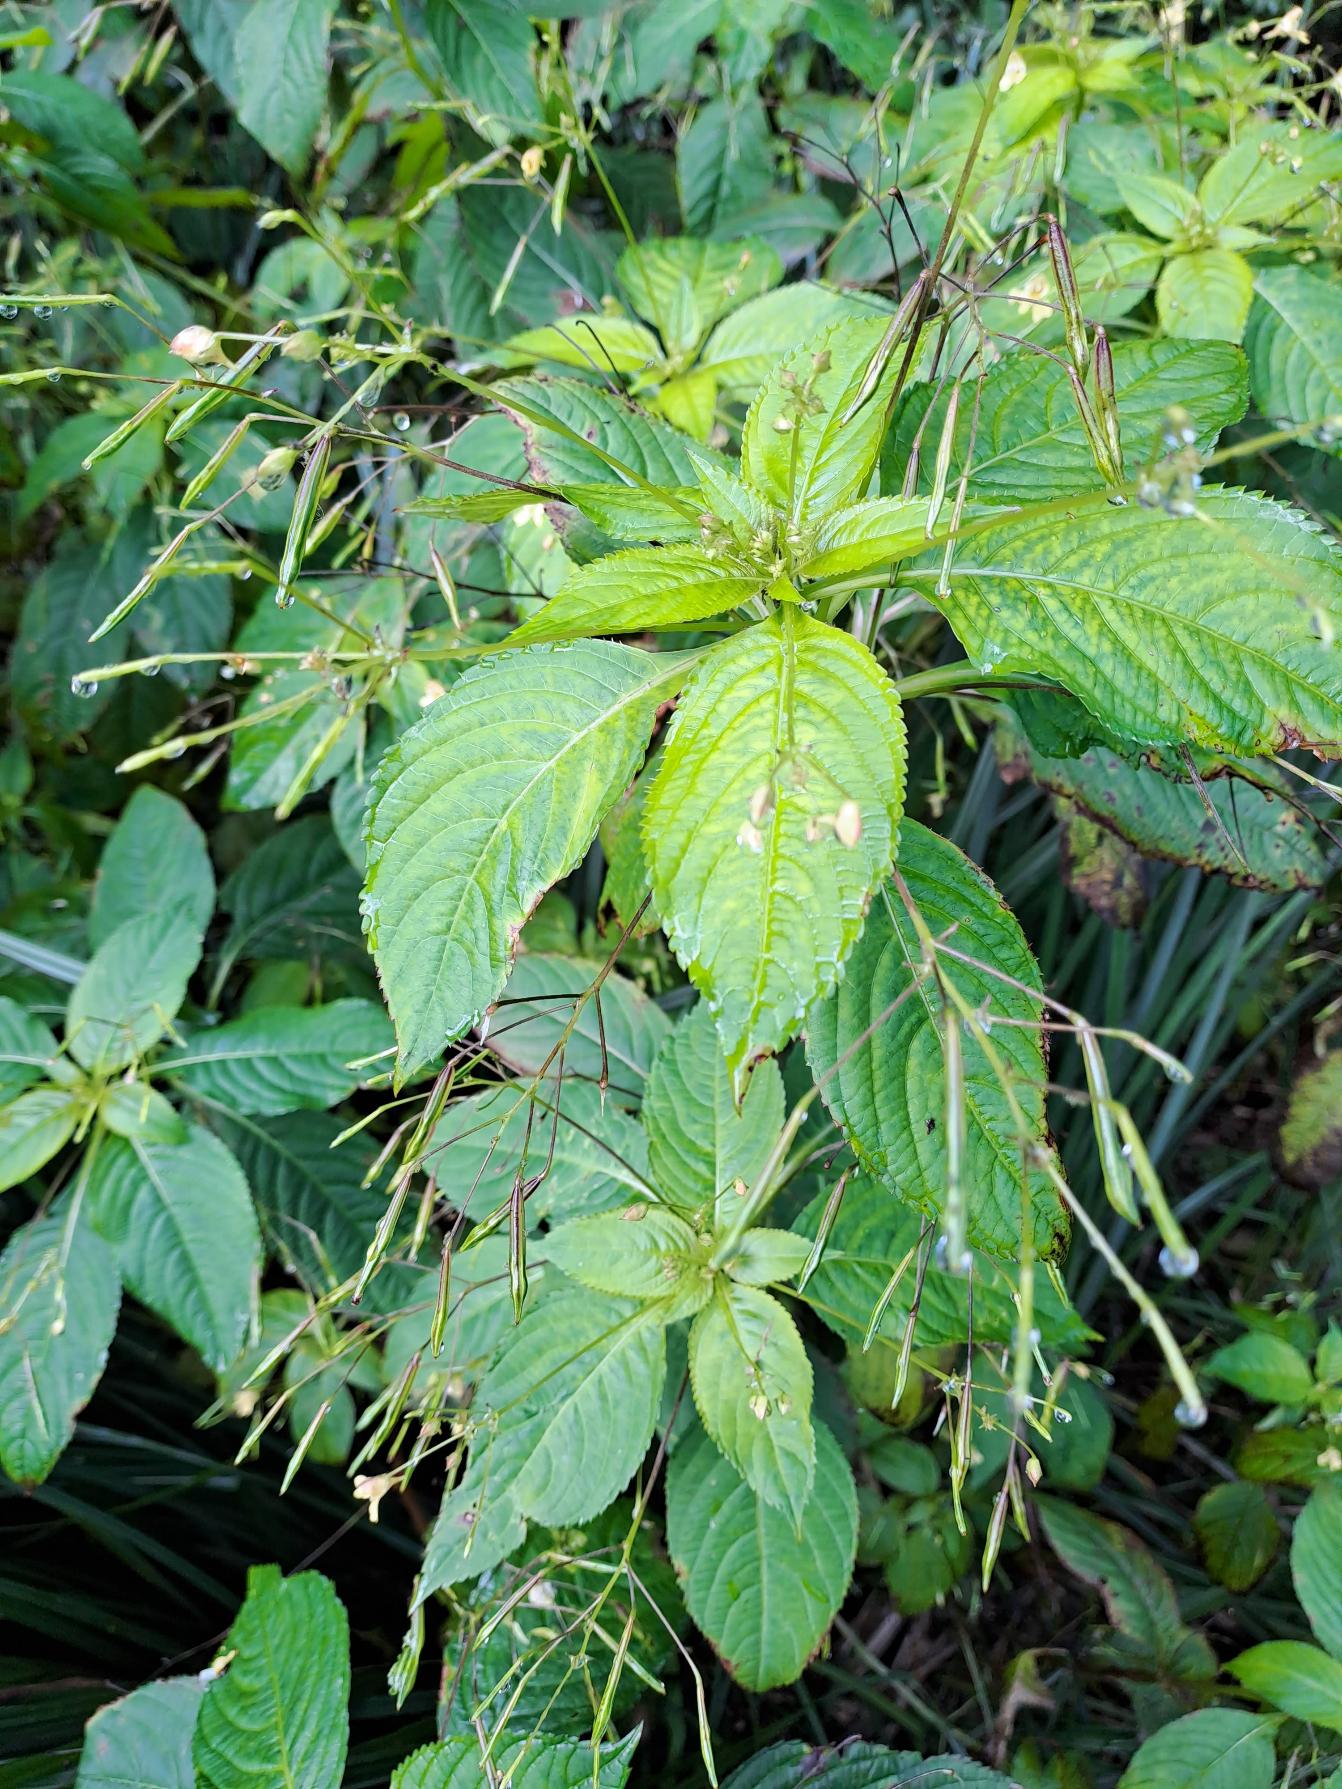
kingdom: Plantae
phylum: Tracheophyta
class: Magnoliopsida
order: Ericales
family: Balsaminaceae
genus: Impatiens
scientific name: Impatiens parviflora
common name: Småblomstret balsamin
